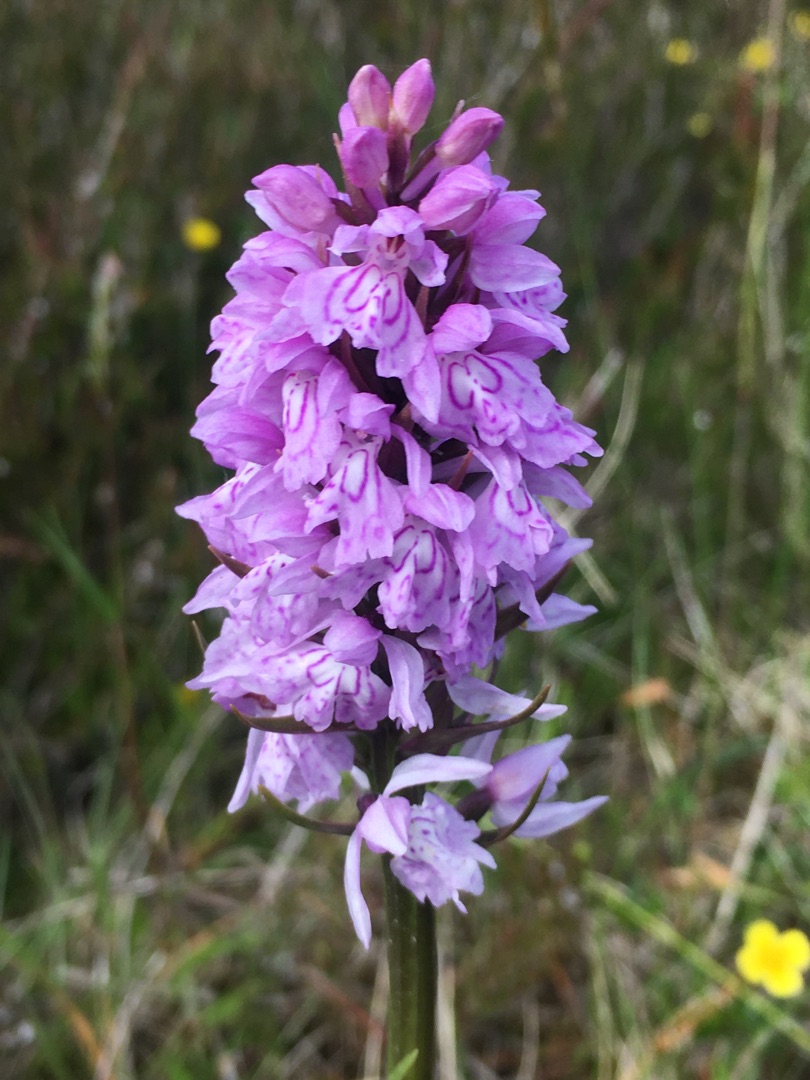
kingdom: Plantae
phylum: Tracheophyta
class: Liliopsida
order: Asparagales
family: Orchidaceae
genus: Dactylorhiza
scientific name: Dactylorhiza maculata
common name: Plettet gøgeurt
